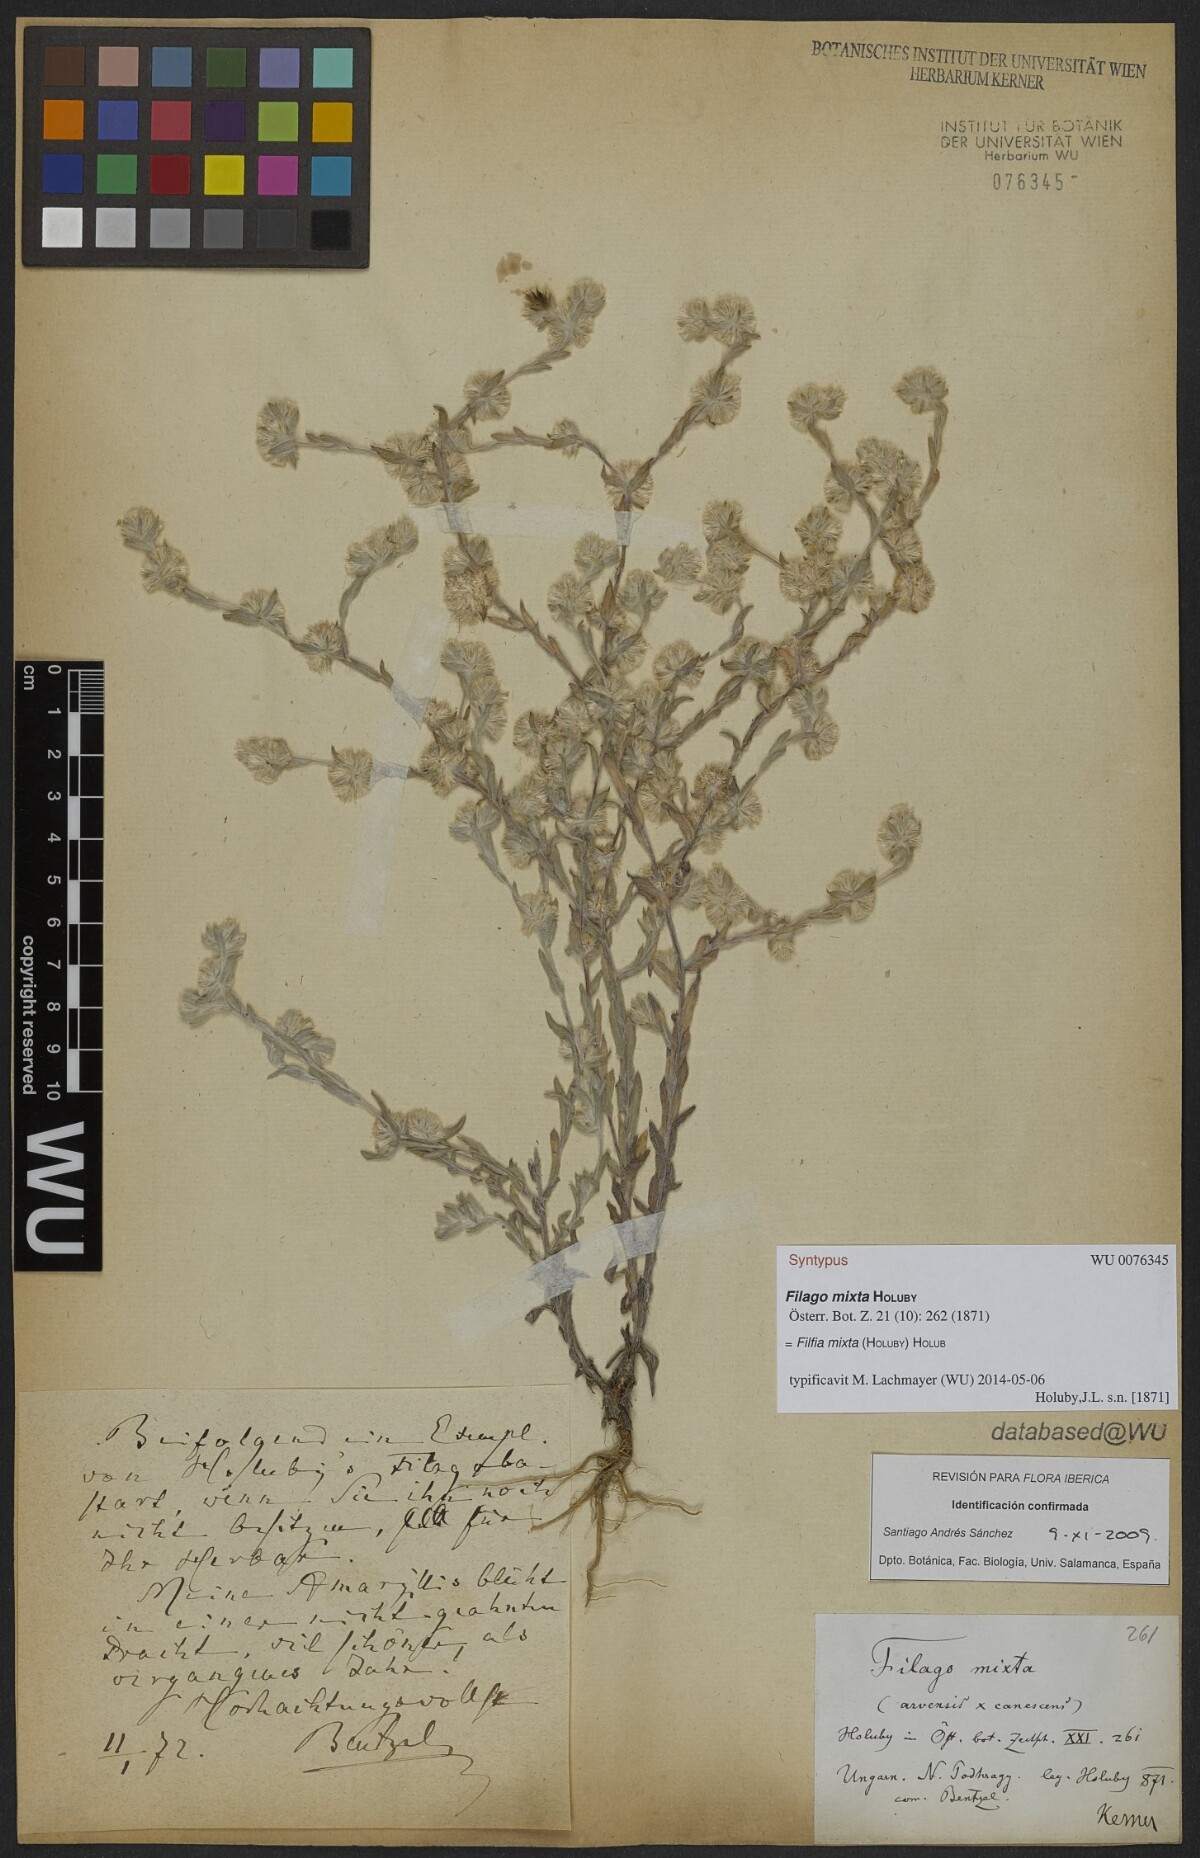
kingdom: Plantae
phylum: Tracheophyta
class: Magnoliopsida
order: Asterales
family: Asteraceae
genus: Filago
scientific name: Filago mixta
